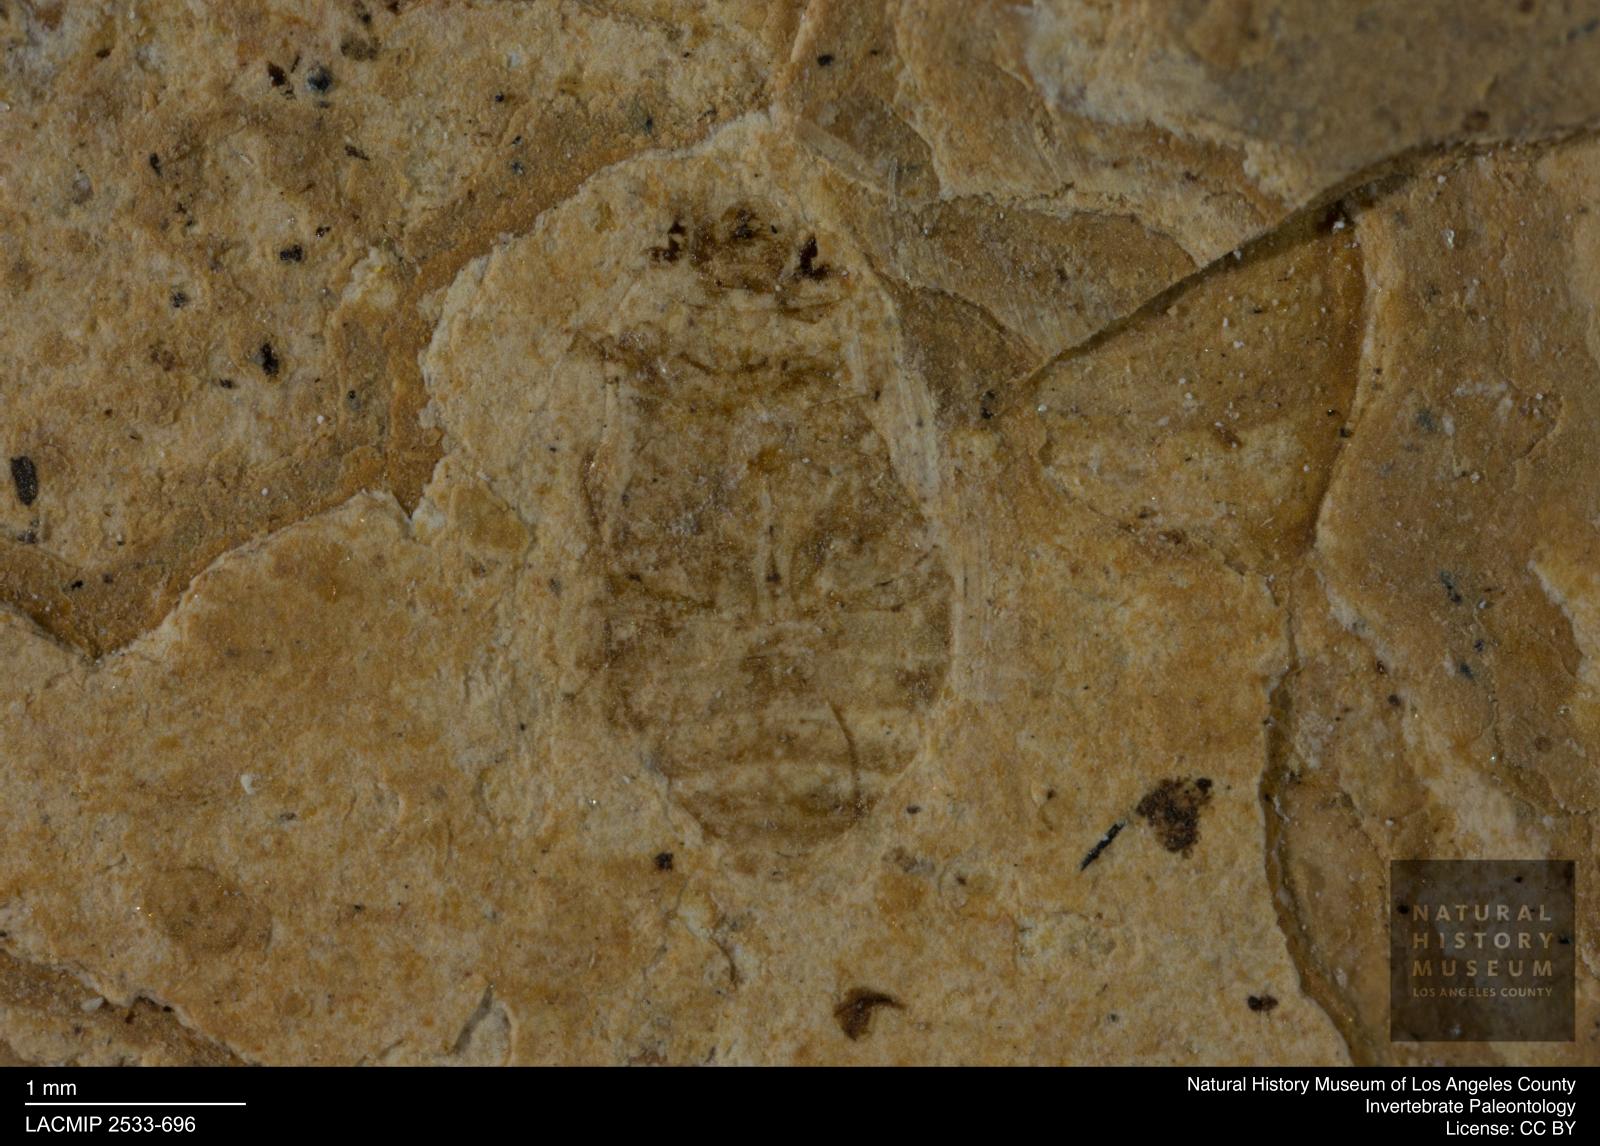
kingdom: Animalia
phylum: Arthropoda
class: Insecta
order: Coleoptera
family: Dytiscidae
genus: Oreodytes
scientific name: Oreodytes cryptolineatus
